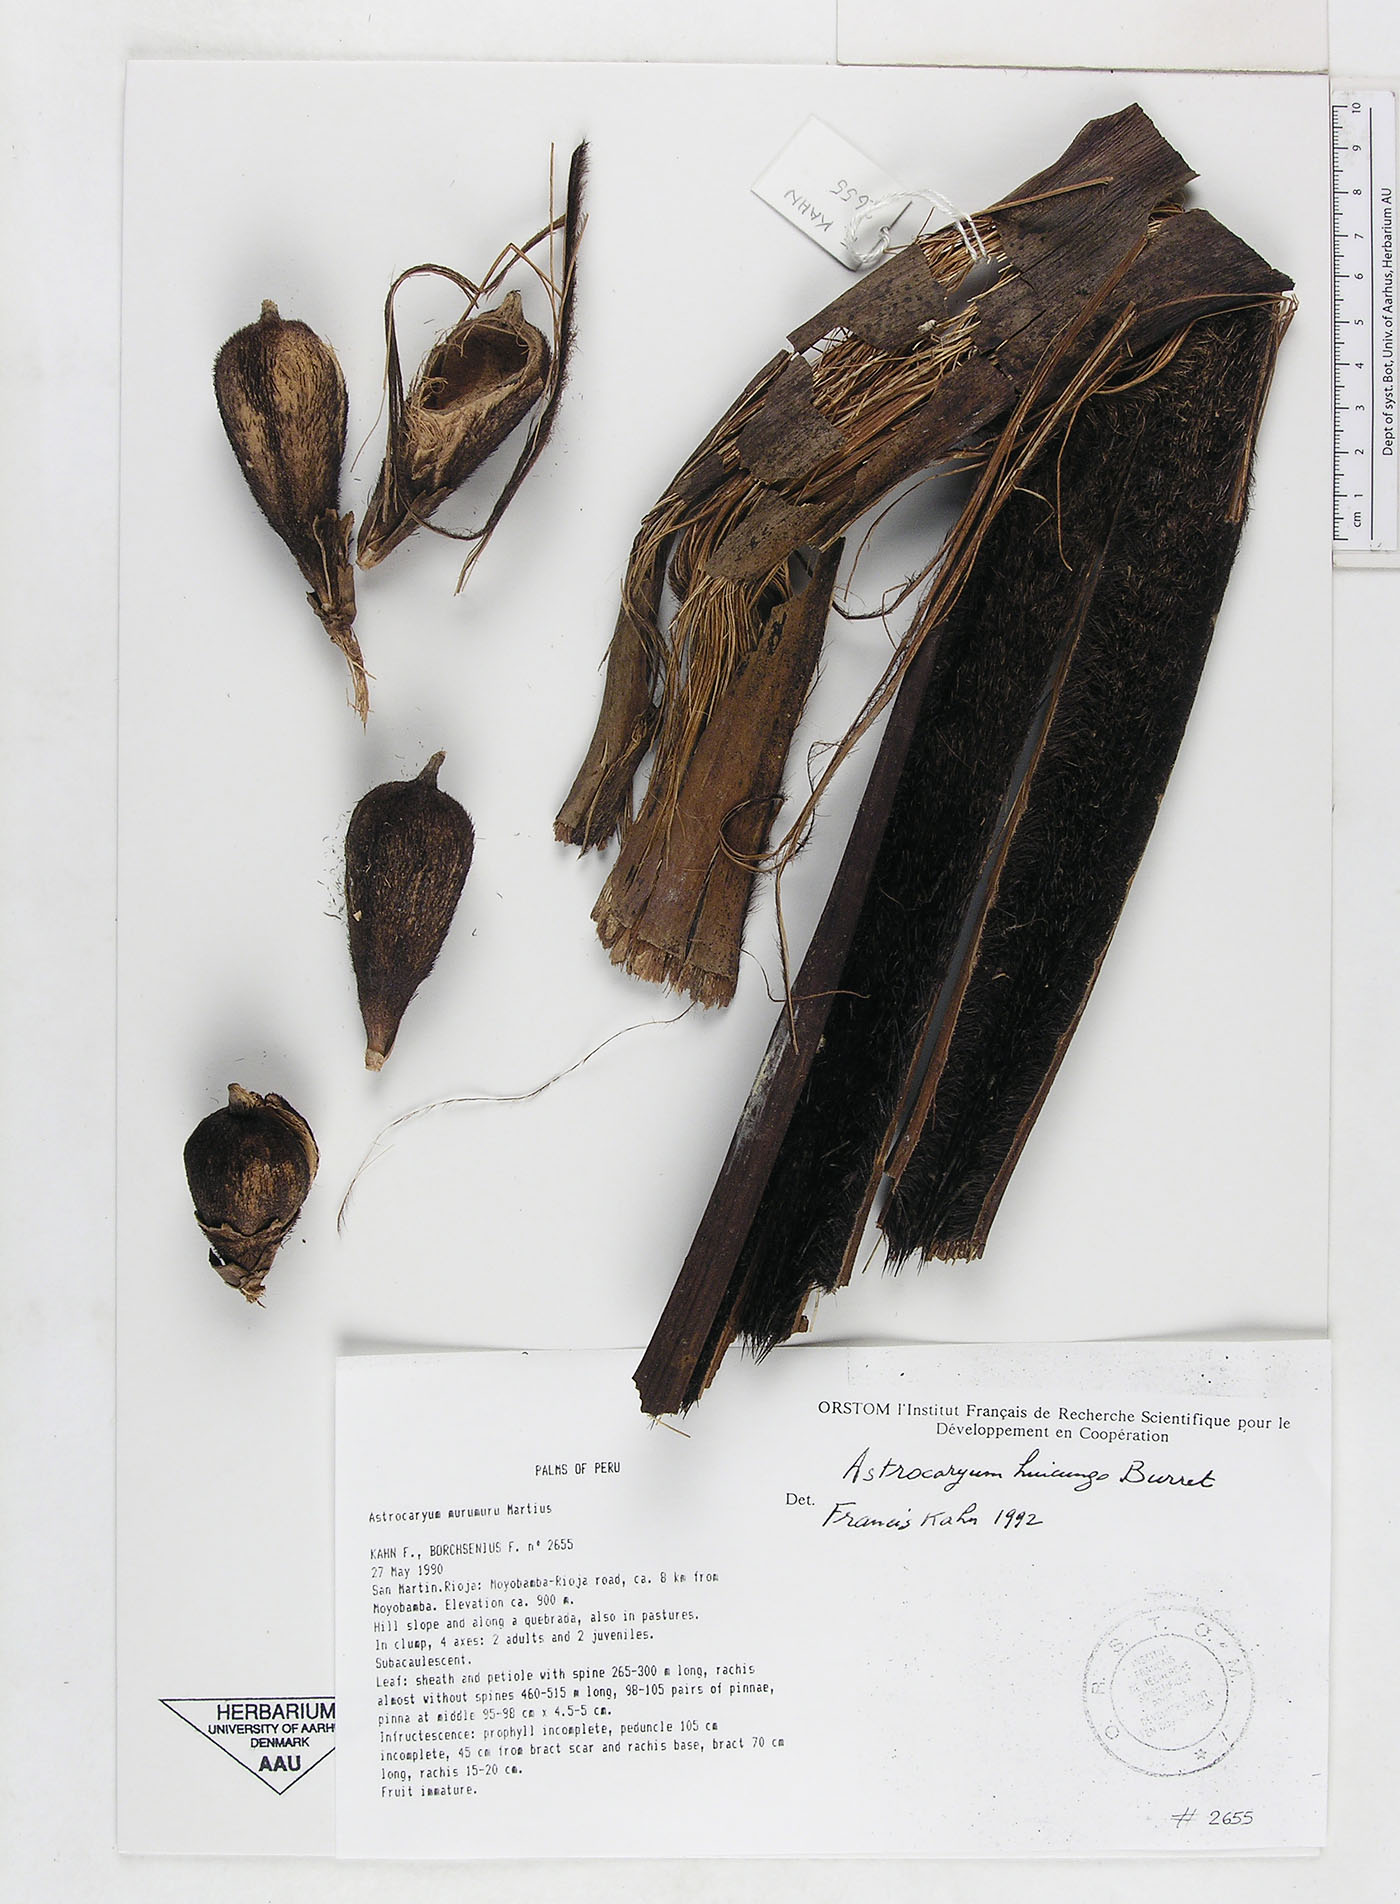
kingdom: Plantae
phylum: Tracheophyta
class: Liliopsida
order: Arecales
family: Arecaceae
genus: Astrocaryum
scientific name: Astrocaryum
